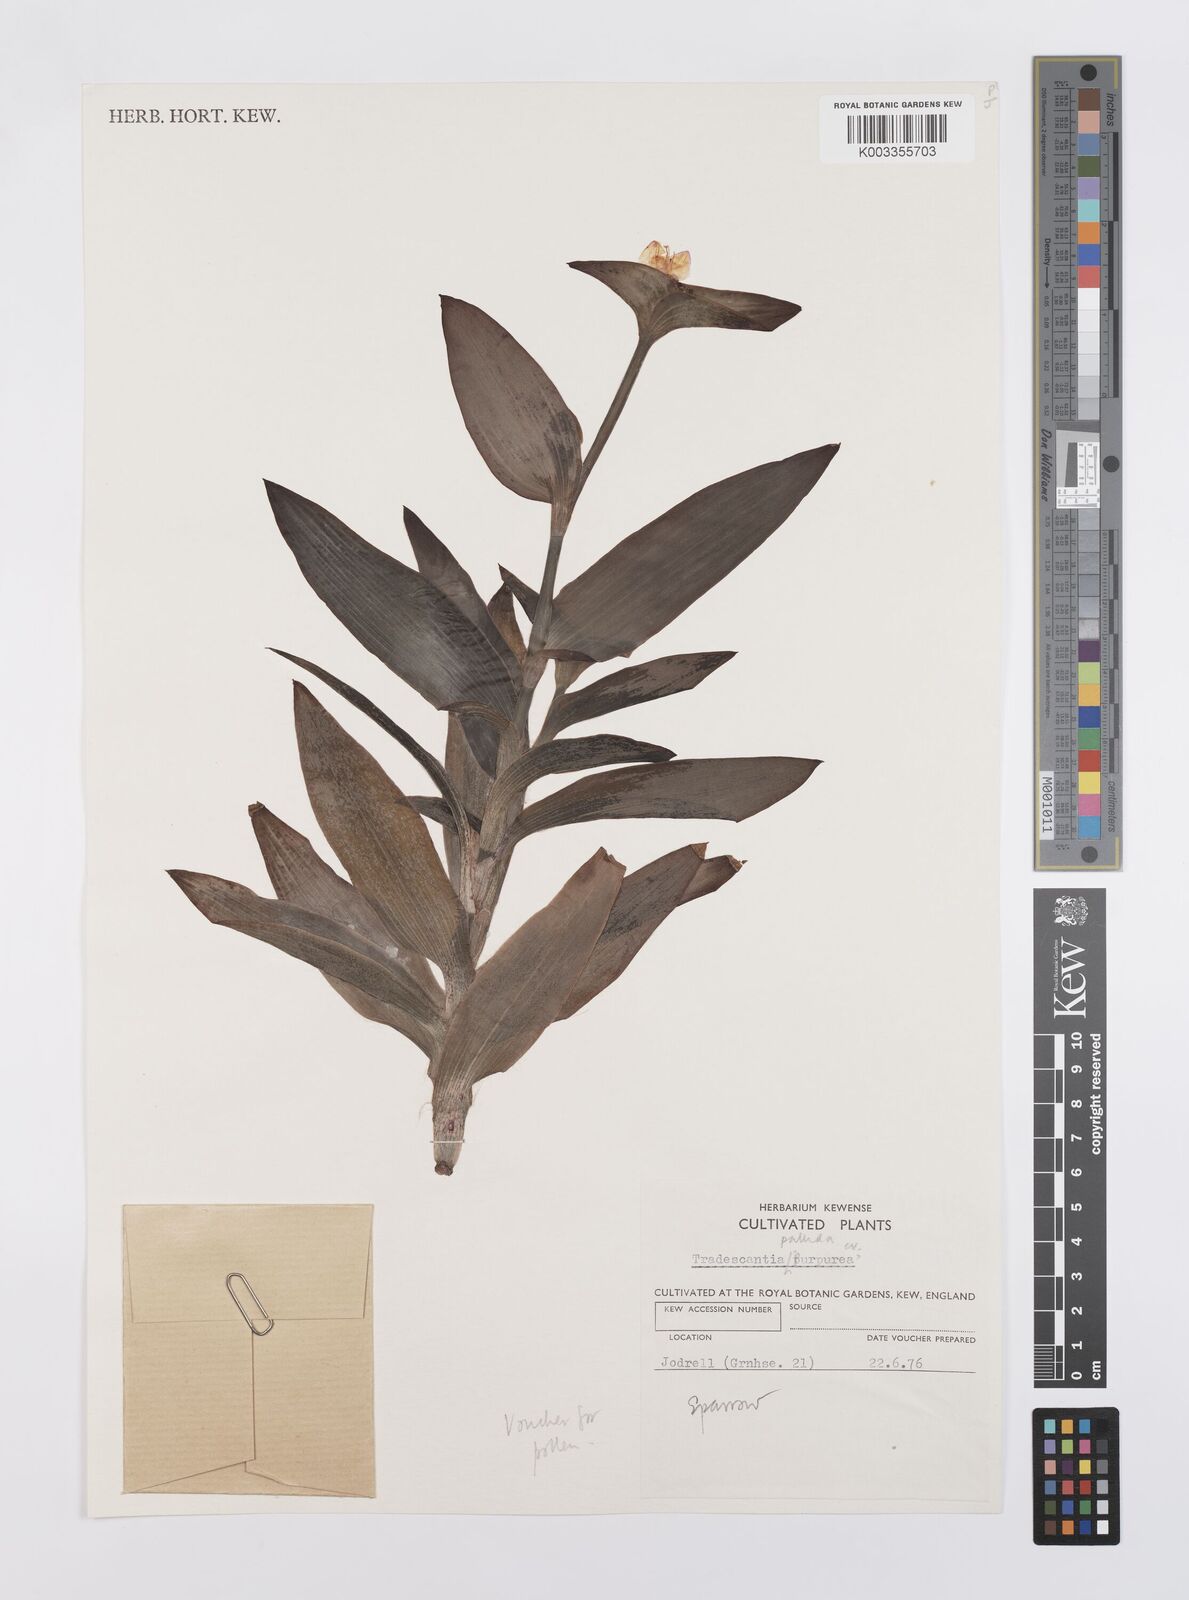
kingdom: Plantae
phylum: Tracheophyta
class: Liliopsida
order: Commelinales
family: Commelinaceae
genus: Tradescantia
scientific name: Tradescantia pallida
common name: Purpleheart
